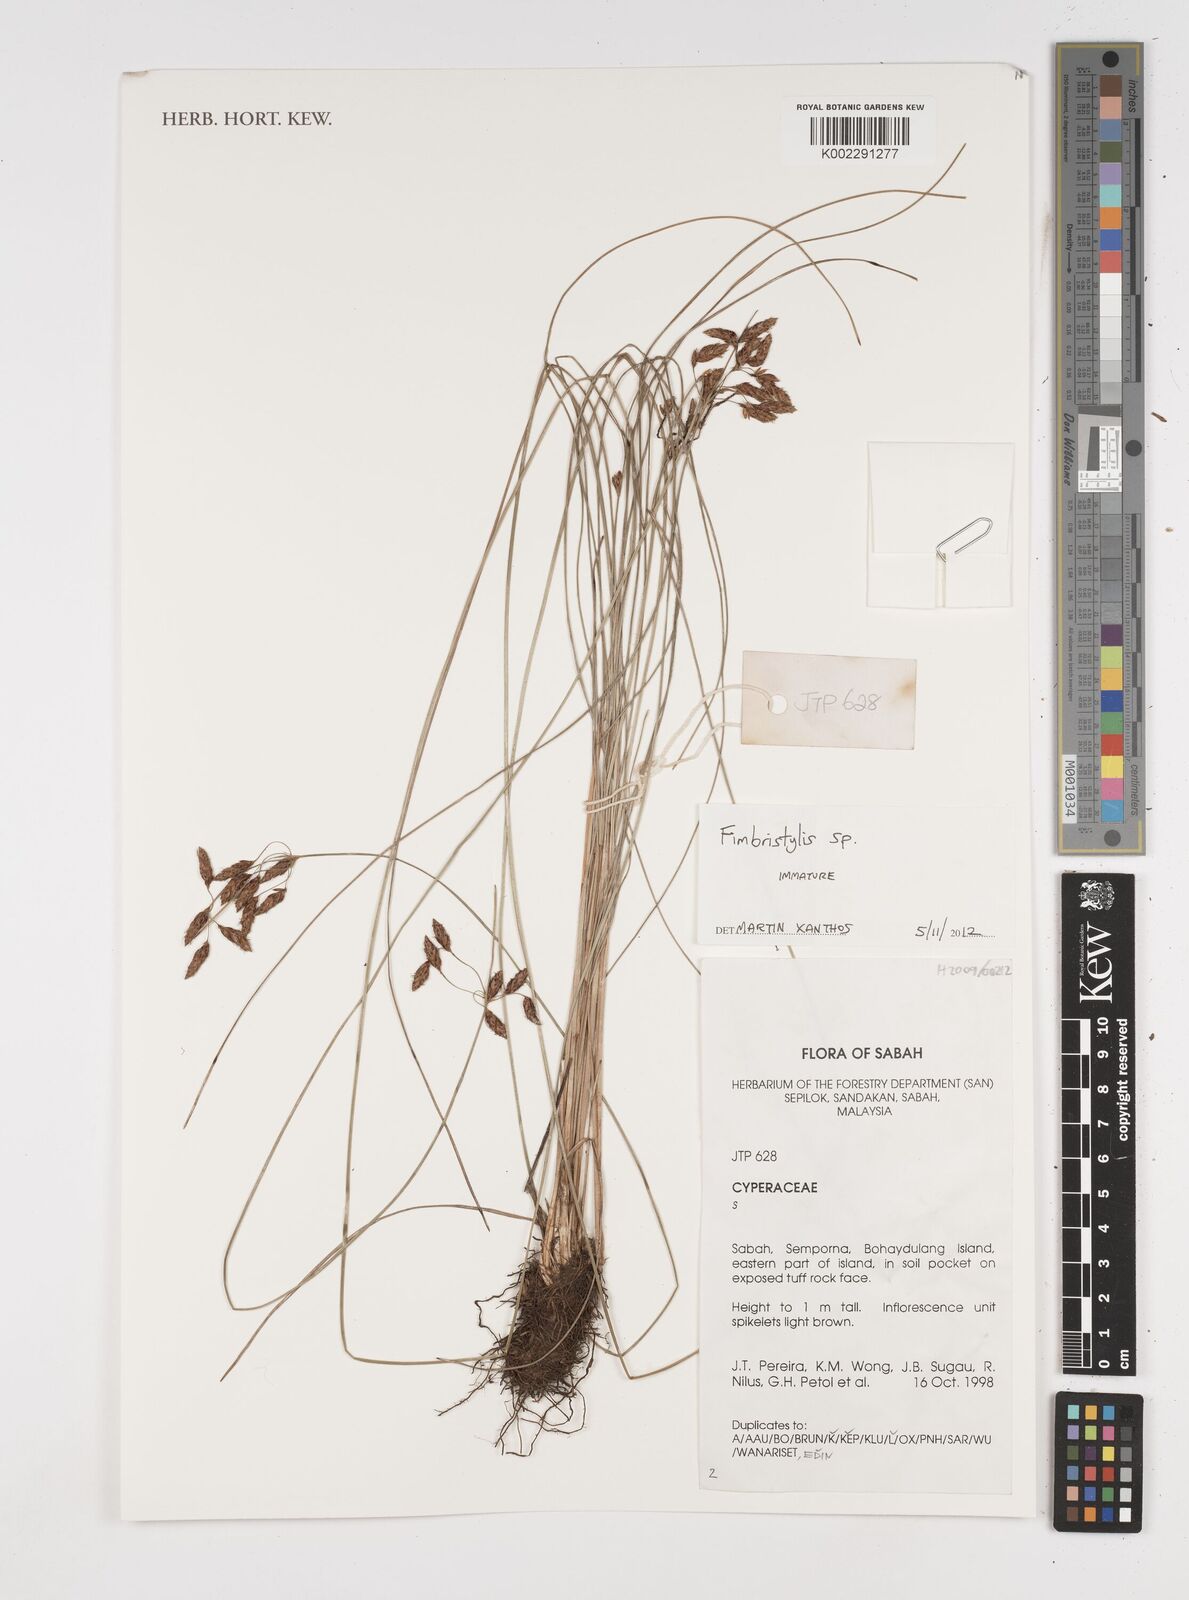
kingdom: Plantae
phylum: Tracheophyta
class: Liliopsida
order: Poales
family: Cyperaceae
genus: Fimbristylis
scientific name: Fimbristylis
